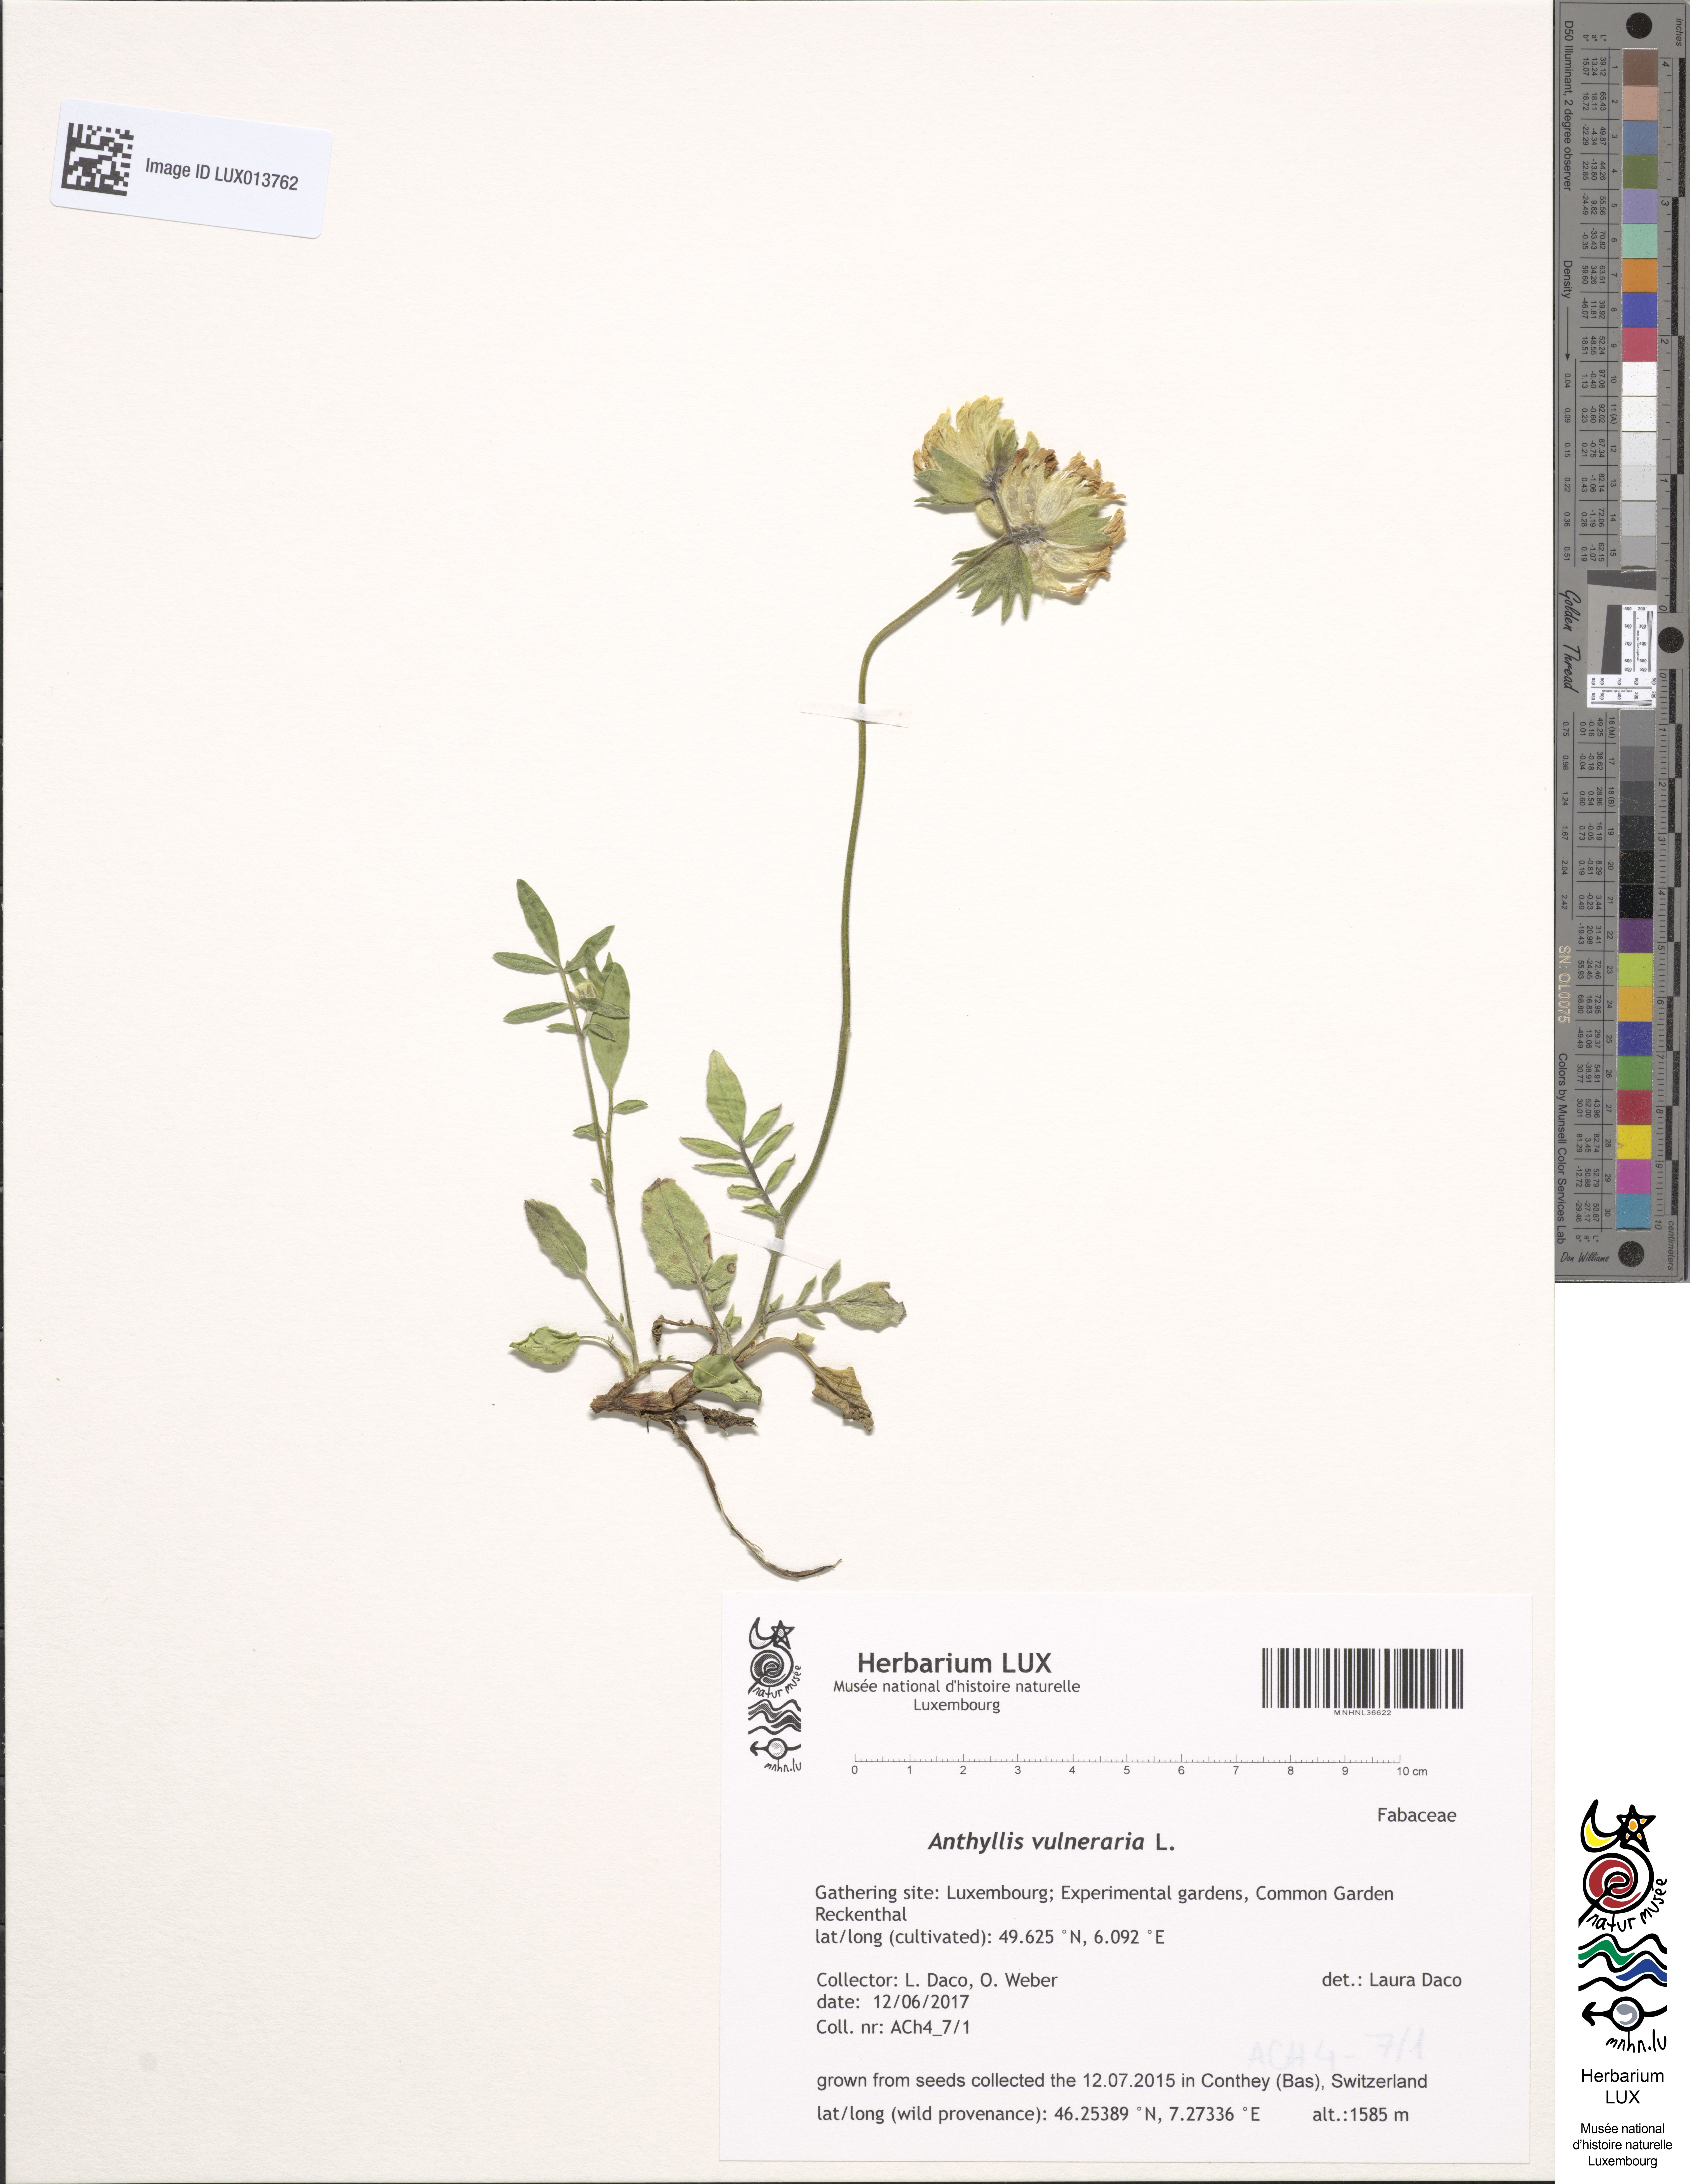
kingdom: Plantae
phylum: Tracheophyta
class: Magnoliopsida
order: Fabales
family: Fabaceae
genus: Anthyllis
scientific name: Anthyllis vulneraria
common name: Kidney vetch
